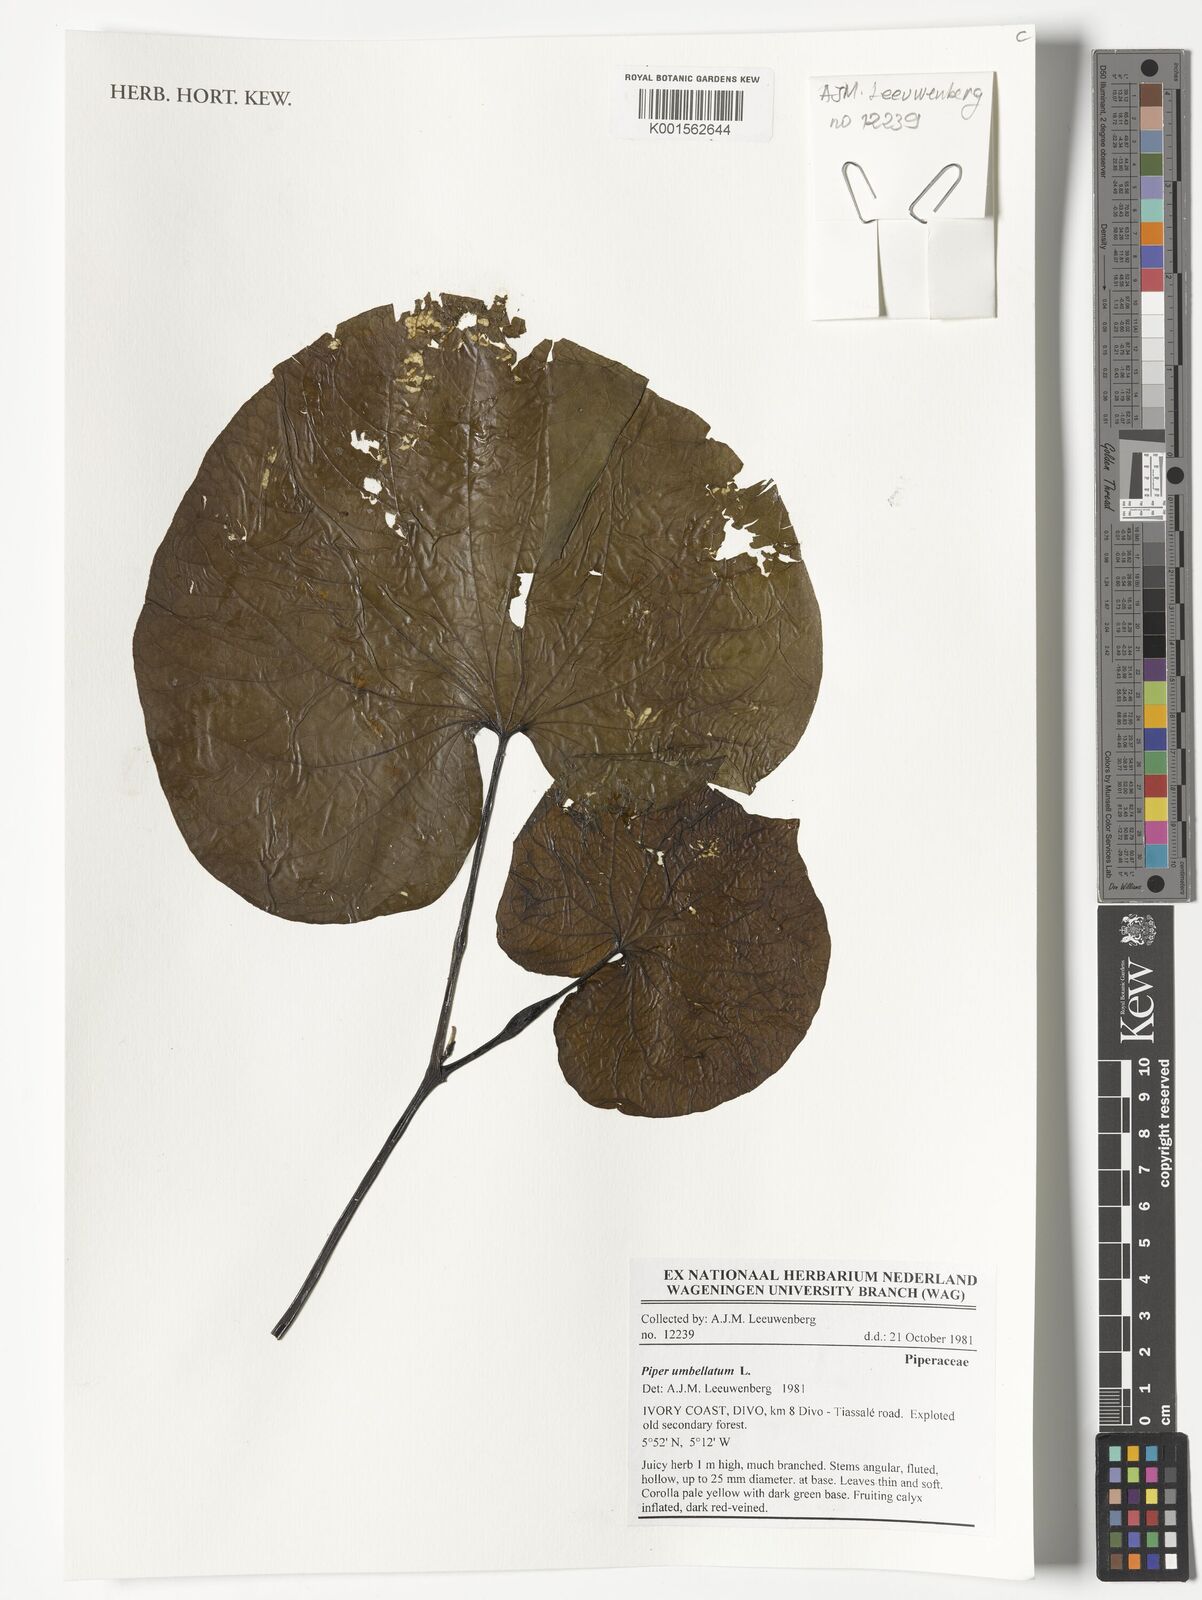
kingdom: Plantae
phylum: Tracheophyta
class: Magnoliopsida
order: Piperales
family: Piperaceae
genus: Piper
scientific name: Piper umbellatum
